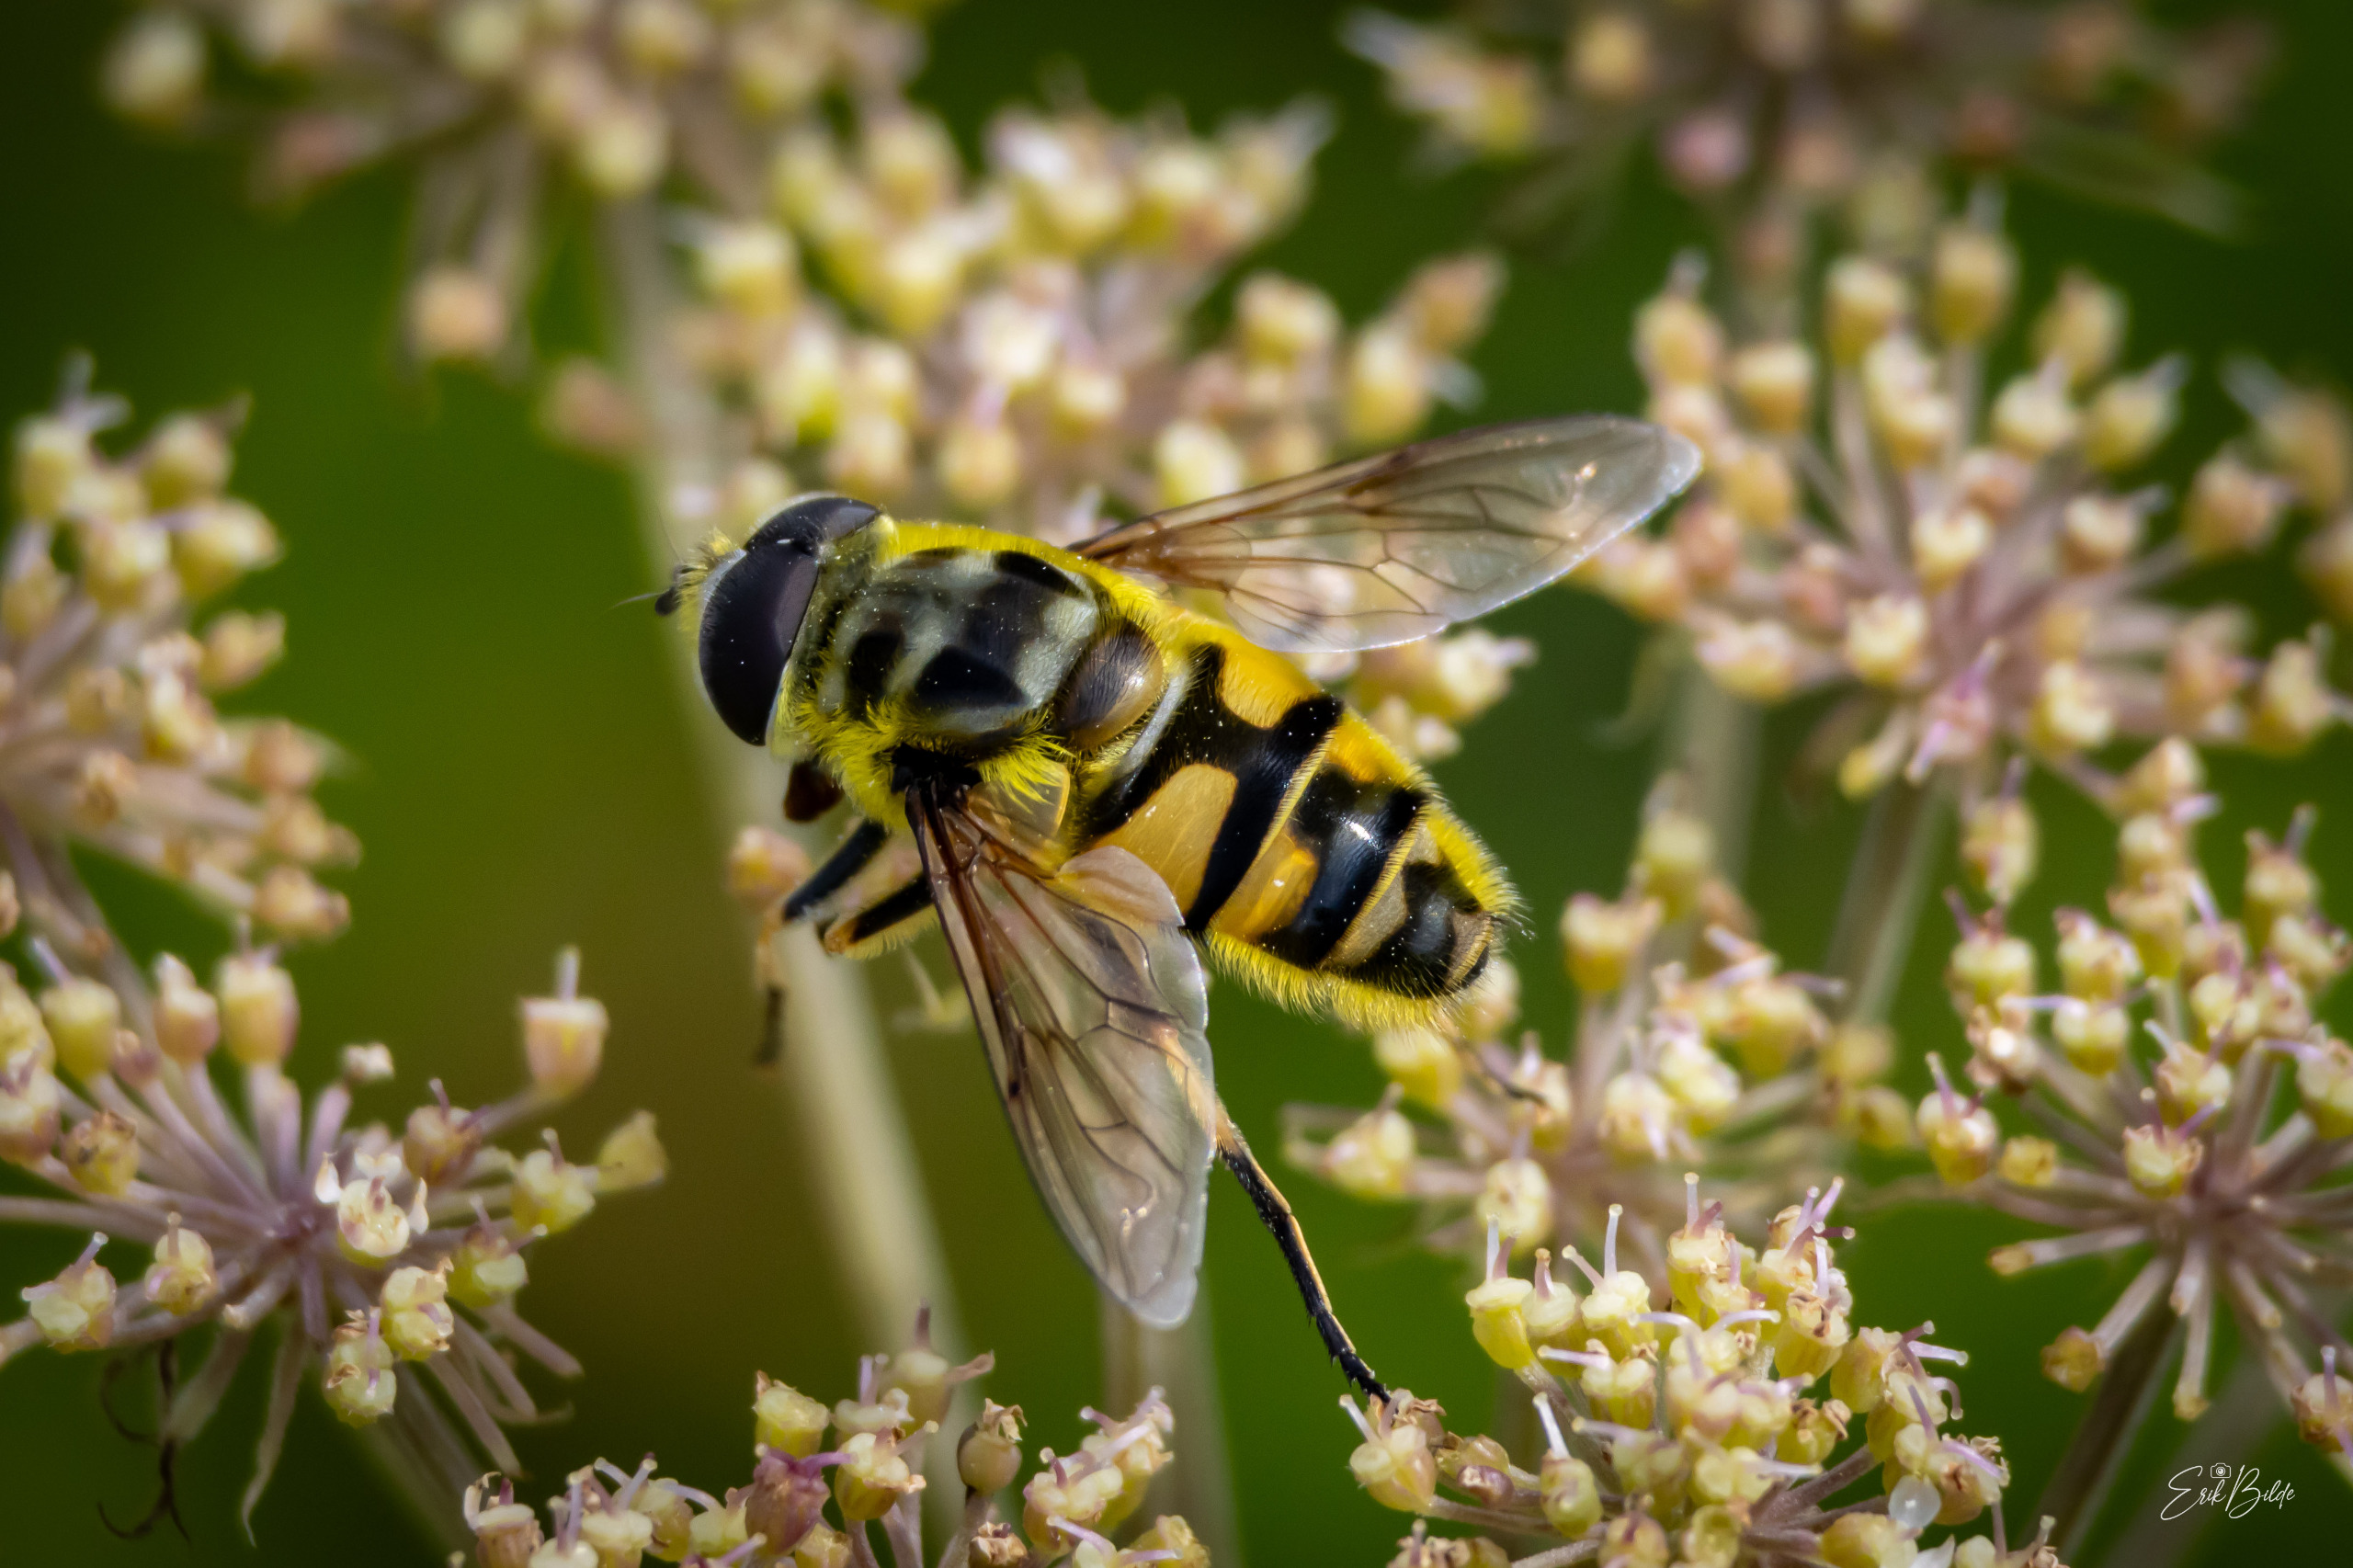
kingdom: Animalia
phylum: Arthropoda
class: Insecta
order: Diptera
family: Syrphidae
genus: Myathropa
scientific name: Myathropa florea
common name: Dødningehoved-svirreflue
